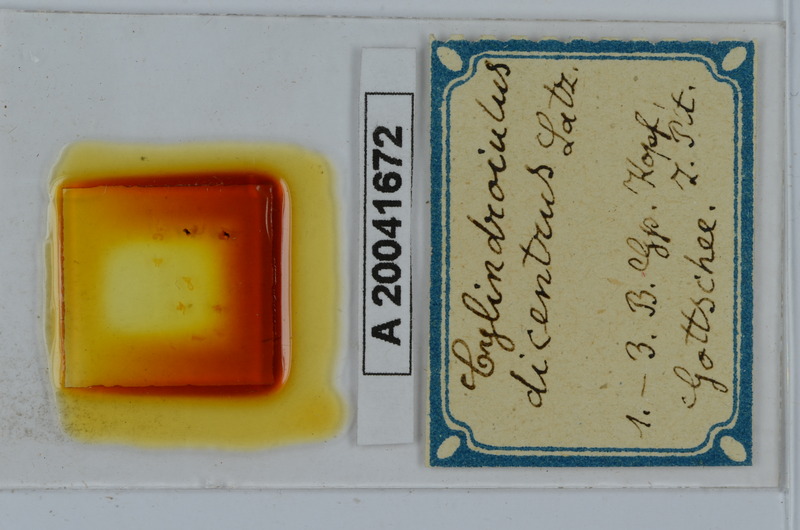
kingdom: Animalia
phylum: Arthropoda
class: Diplopoda
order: Julida
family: Julidae
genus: Allajulus
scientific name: Allajulus dicentrus
